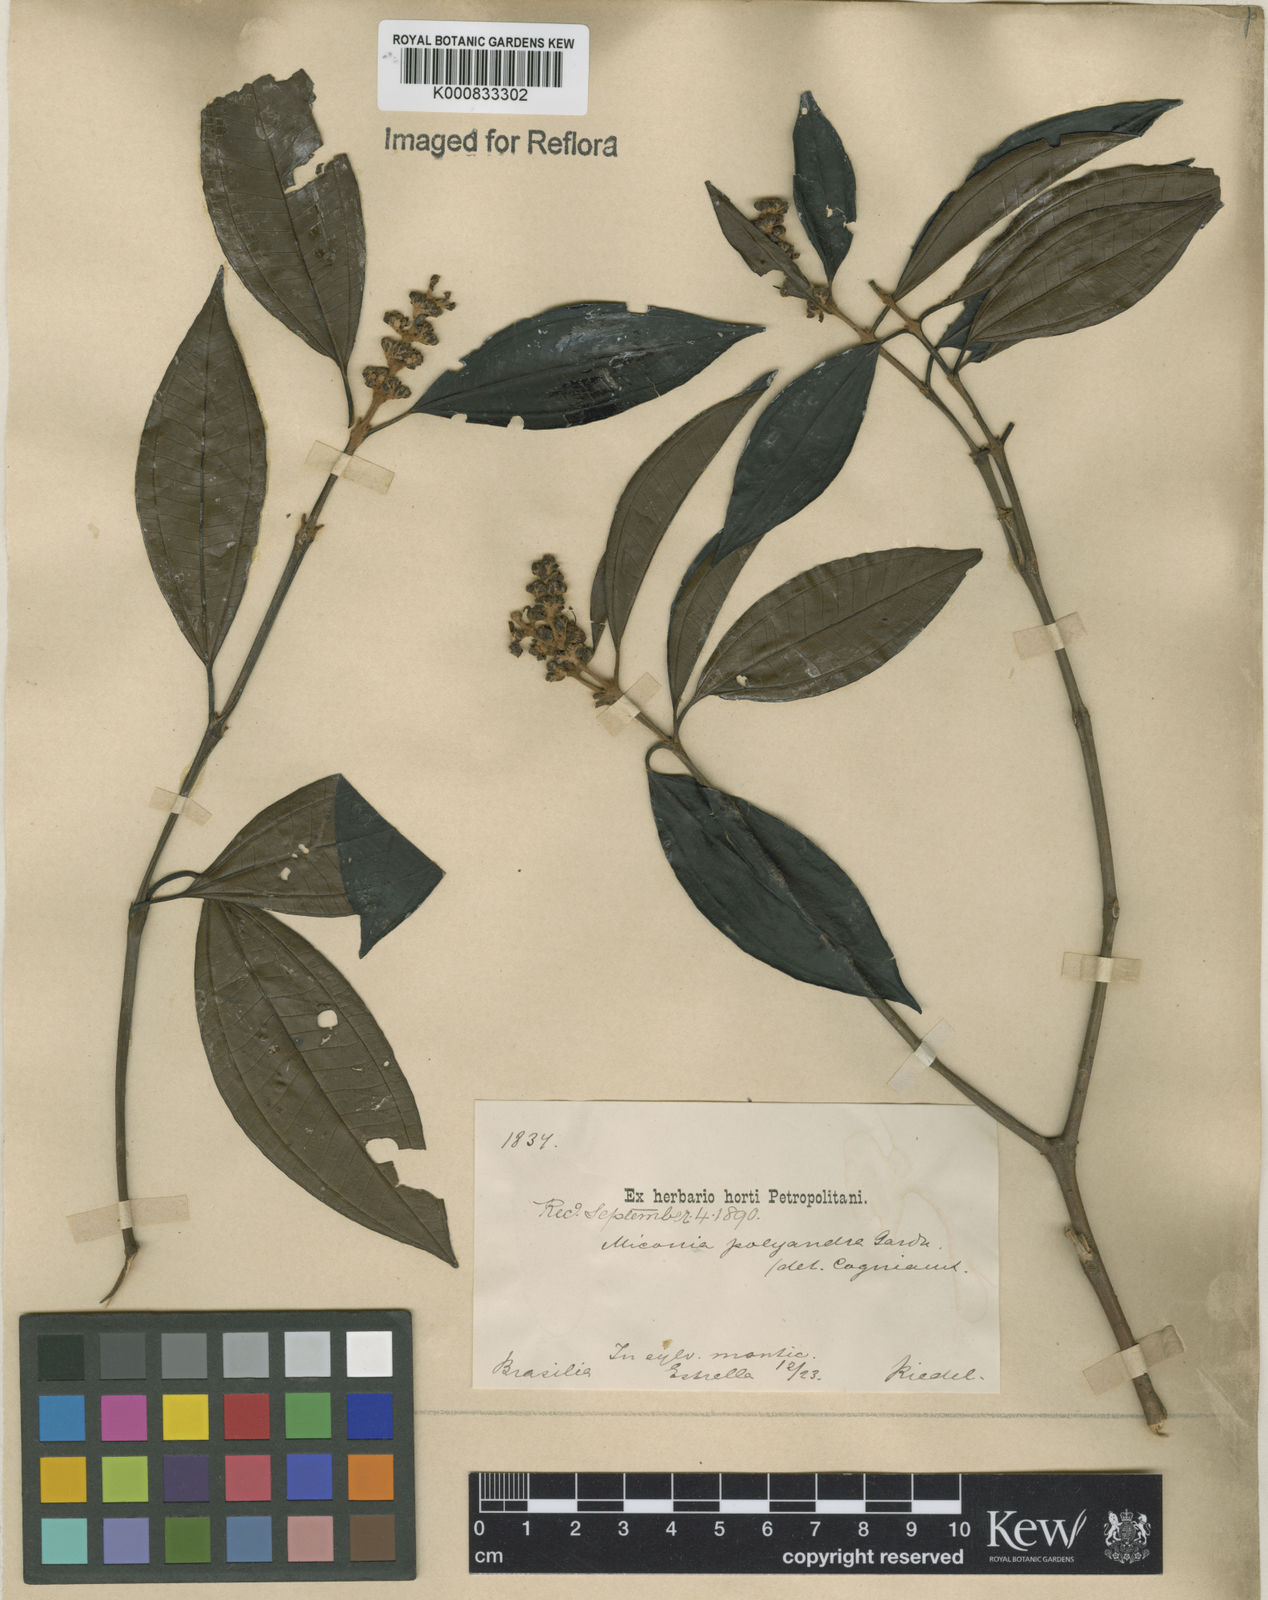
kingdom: Plantae
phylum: Tracheophyta
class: Magnoliopsida
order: Myrtales
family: Melastomataceae
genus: Miconia
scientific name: Miconia polyandra
